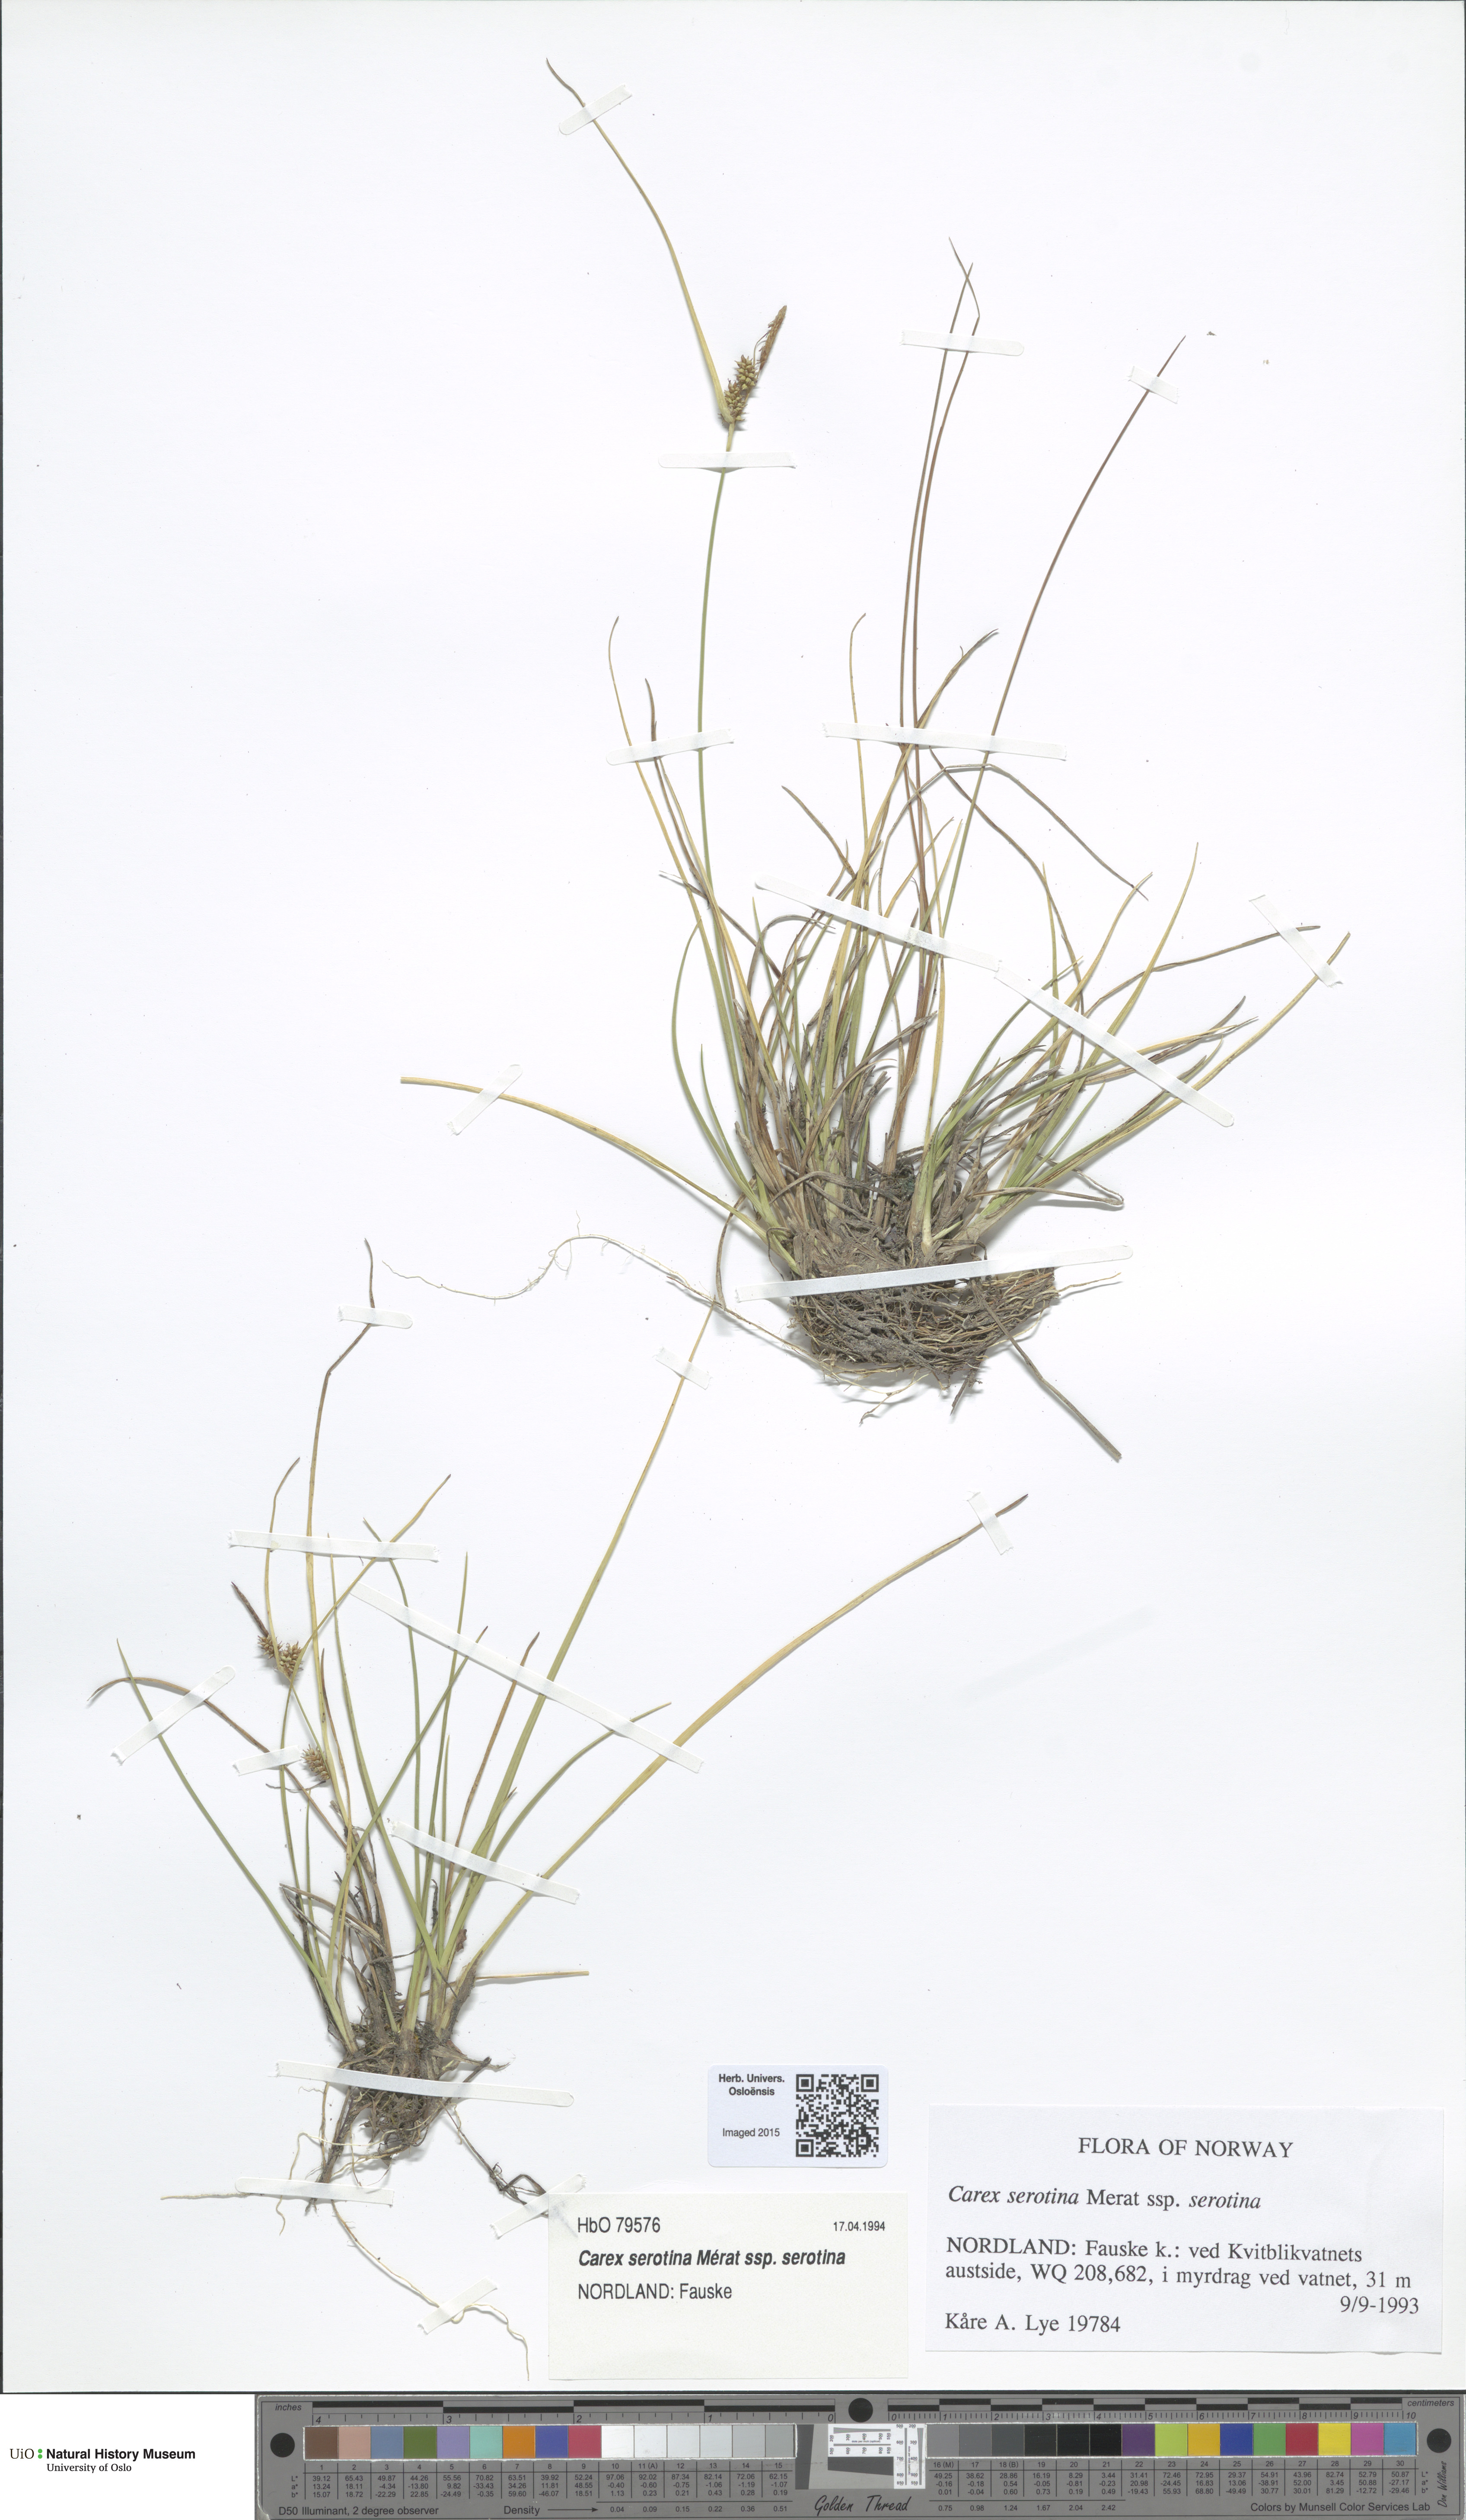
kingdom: Plantae
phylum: Tracheophyta
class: Liliopsida
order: Poales
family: Cyperaceae
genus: Carex
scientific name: Carex oederi
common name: Common & small-fruited yellow-sedge
